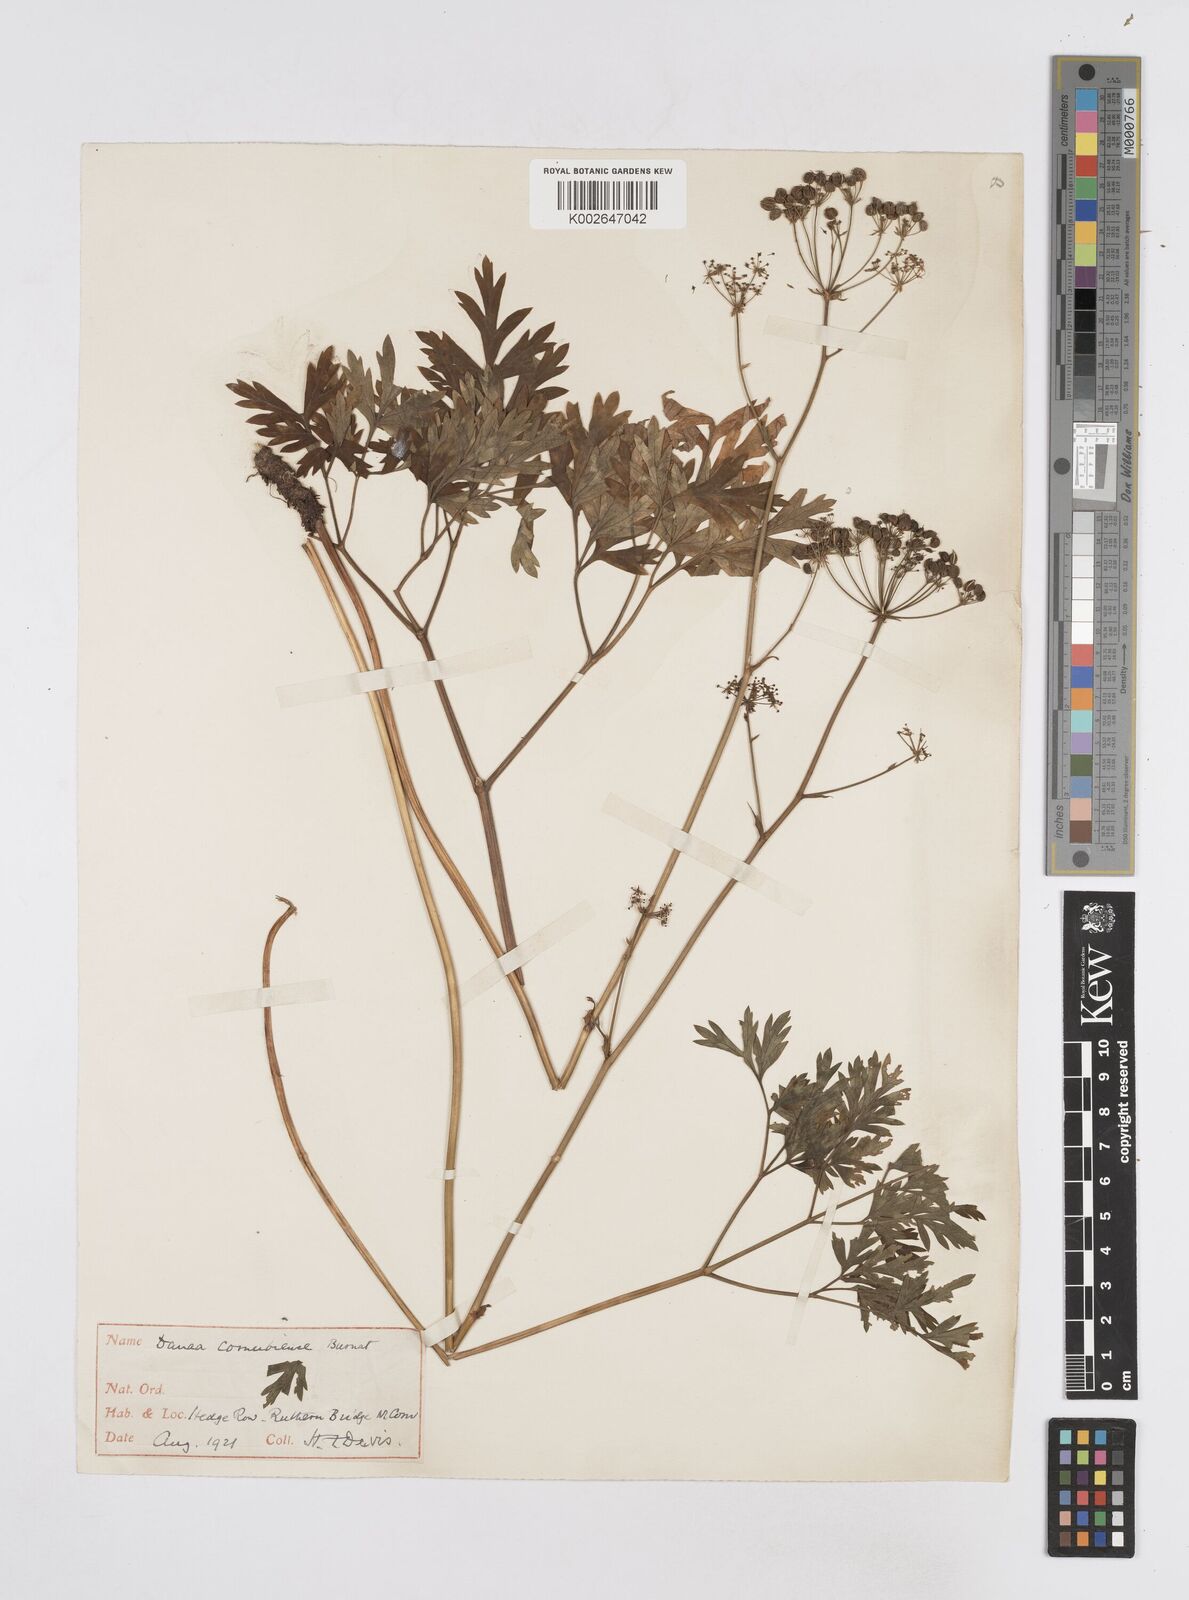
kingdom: Plantae
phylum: Tracheophyta
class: Magnoliopsida
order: Apiales
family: Apiaceae
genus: Physospermum
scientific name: Physospermum cornubiense
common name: Bladderseed
